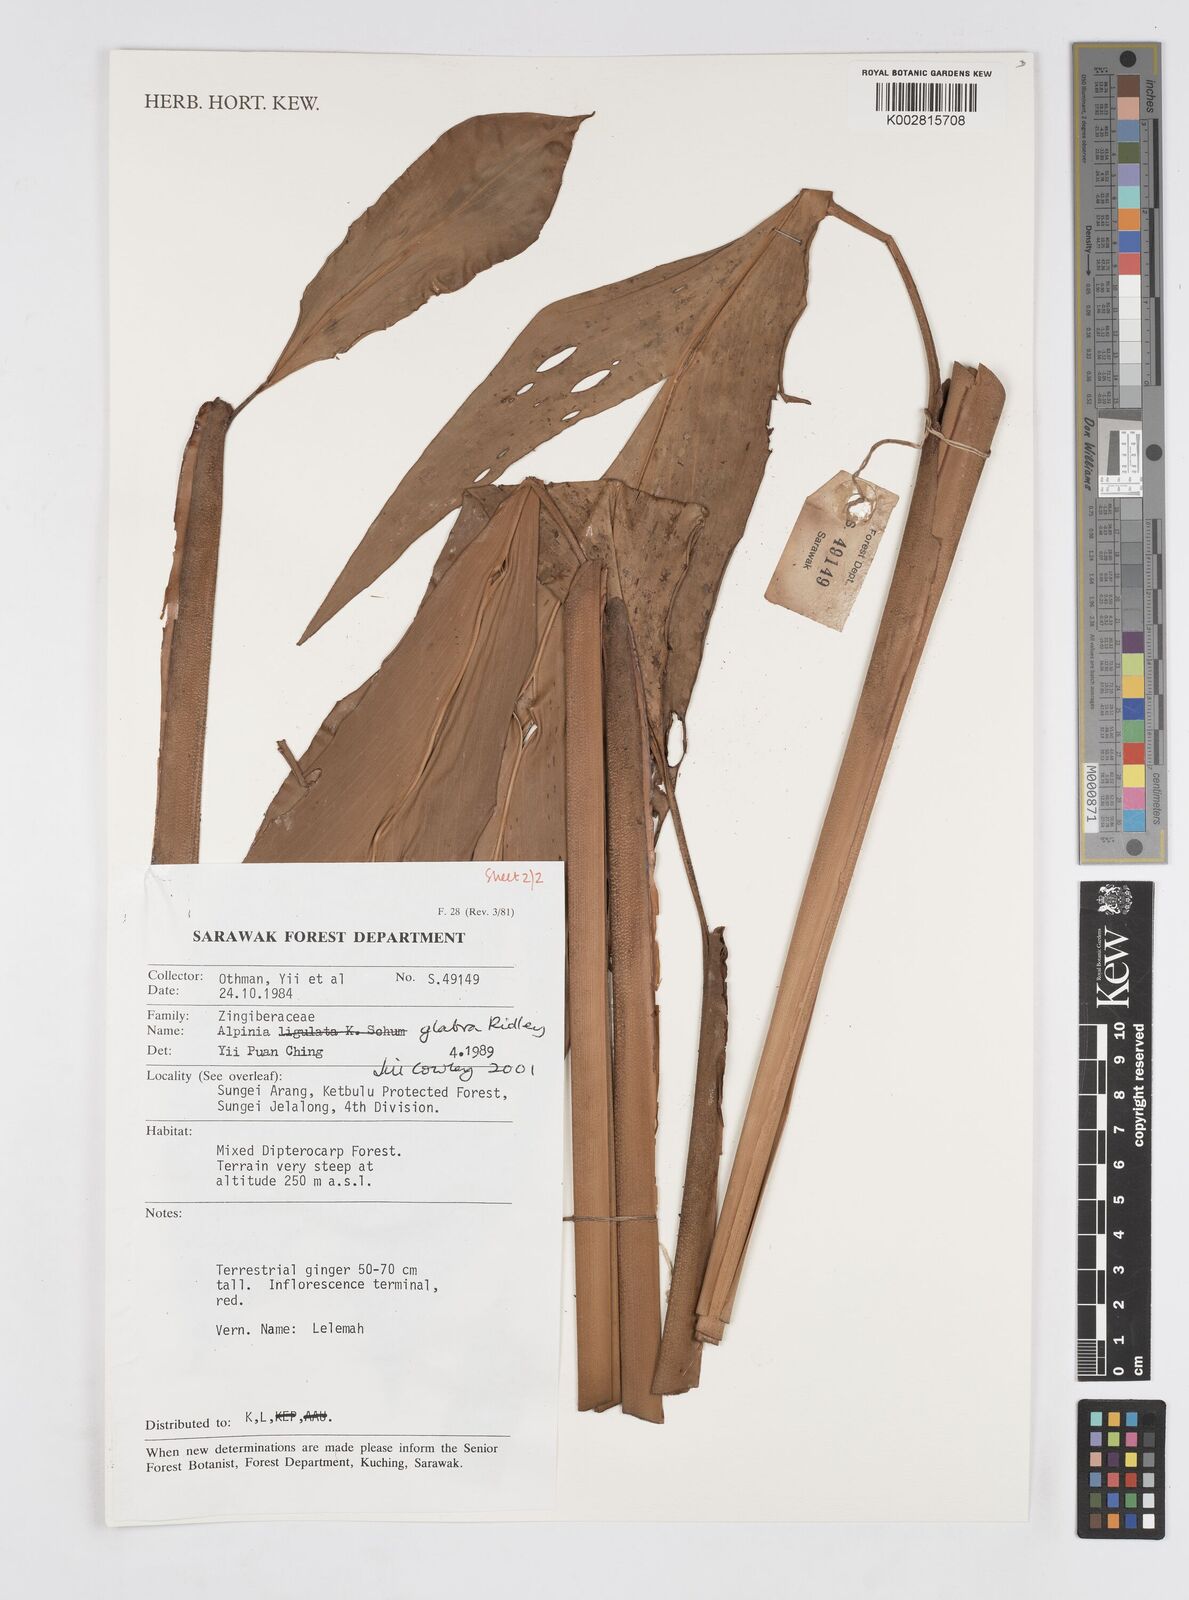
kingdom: Plantae
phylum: Tracheophyta
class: Liliopsida
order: Zingiberales
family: Zingiberaceae
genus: Alpinia
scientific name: Alpinia glabra
